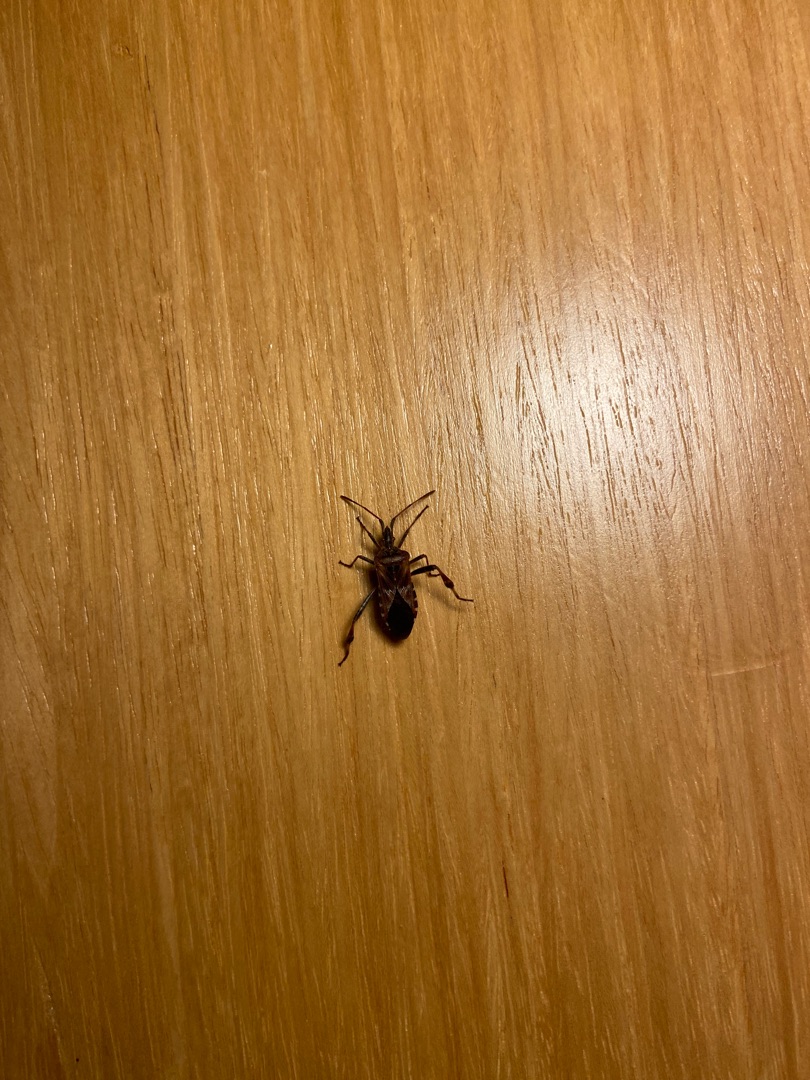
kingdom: Animalia
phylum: Arthropoda
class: Insecta
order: Hemiptera
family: Coreidae
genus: Leptoglossus
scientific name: Leptoglossus occidentalis
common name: Amerikansk fyrretæge
